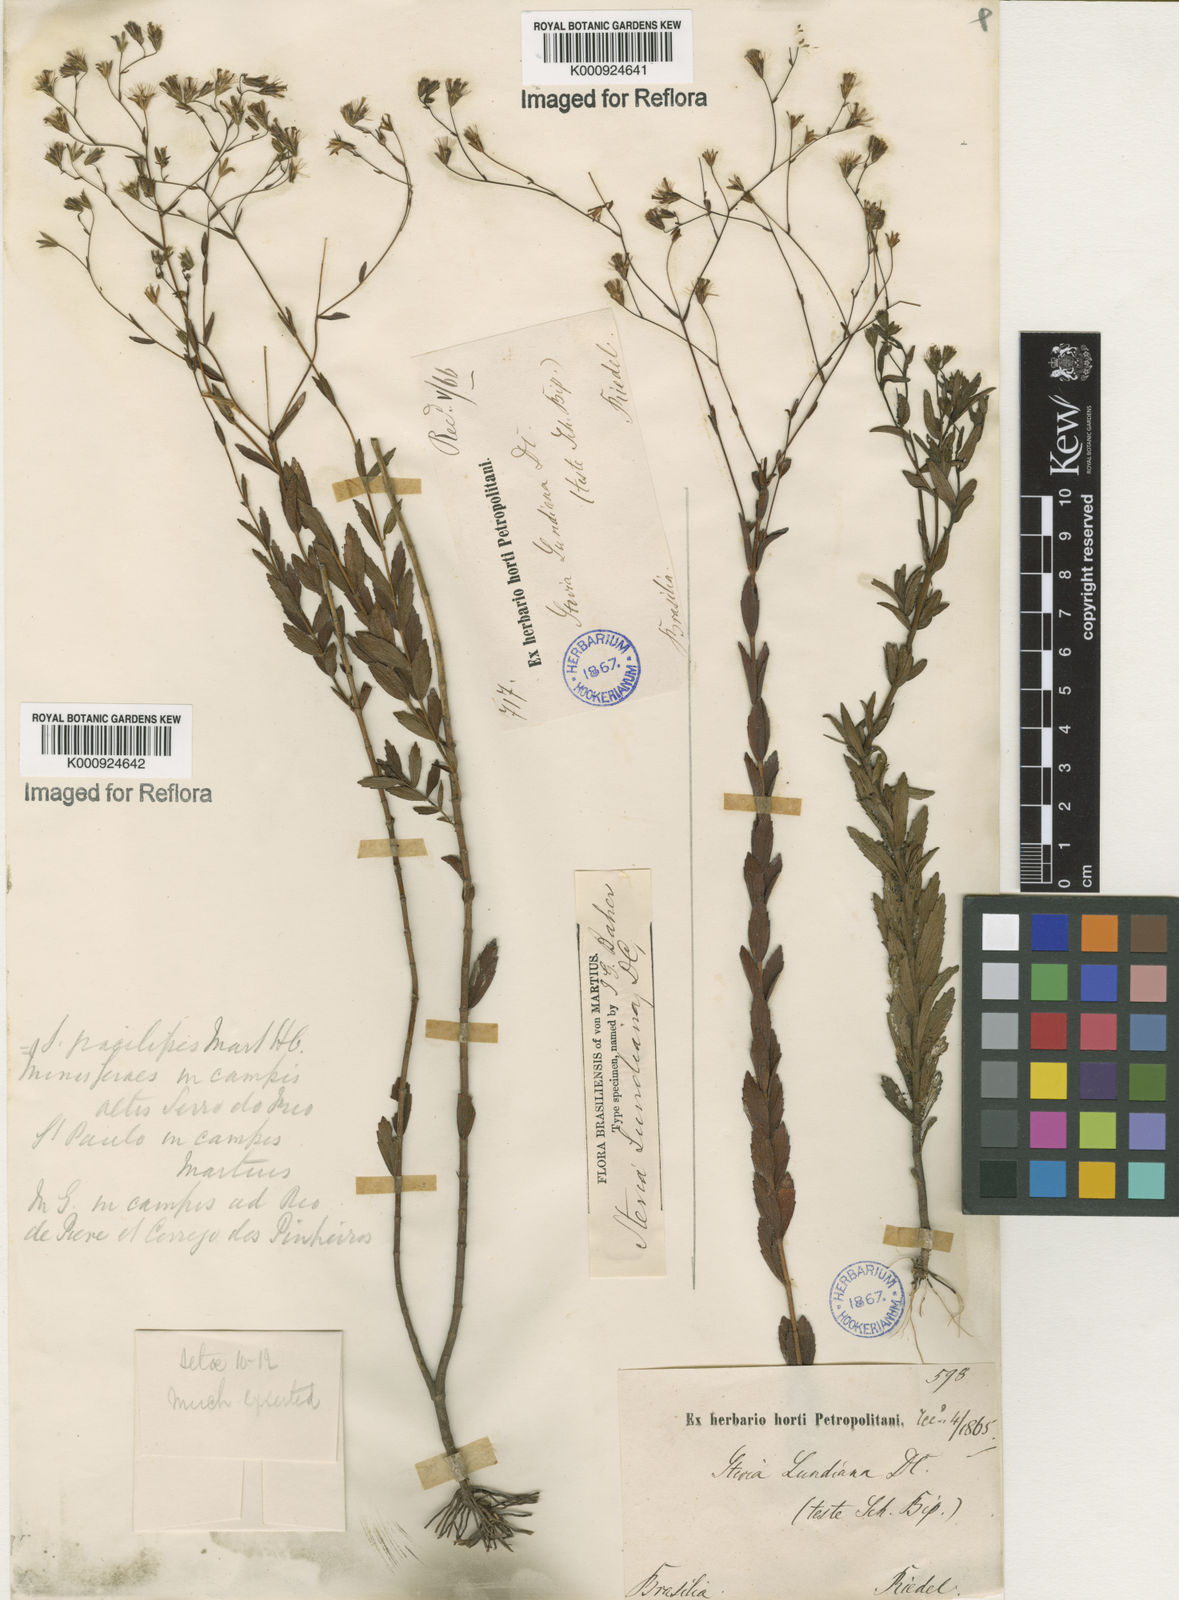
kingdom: Plantae
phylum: Tracheophyta
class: Magnoliopsida
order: Asterales
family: Asteraceae
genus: Stevia
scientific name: Stevia lundiana
